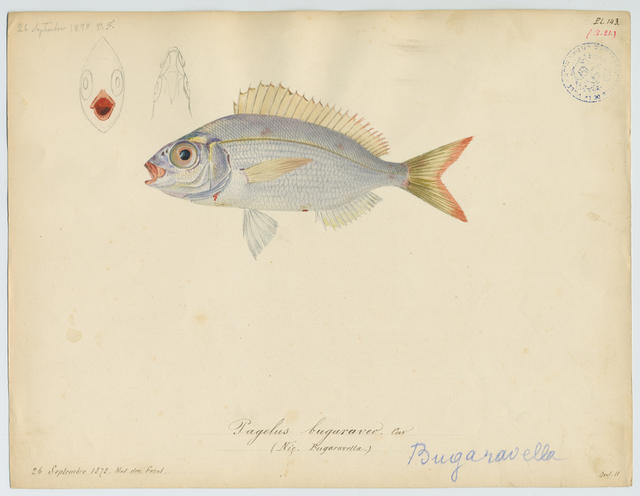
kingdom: Animalia
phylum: Chordata
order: Perciformes
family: Sparidae
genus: Pagellus
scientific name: Pagellus bogaraveo
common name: Red sea-bream
